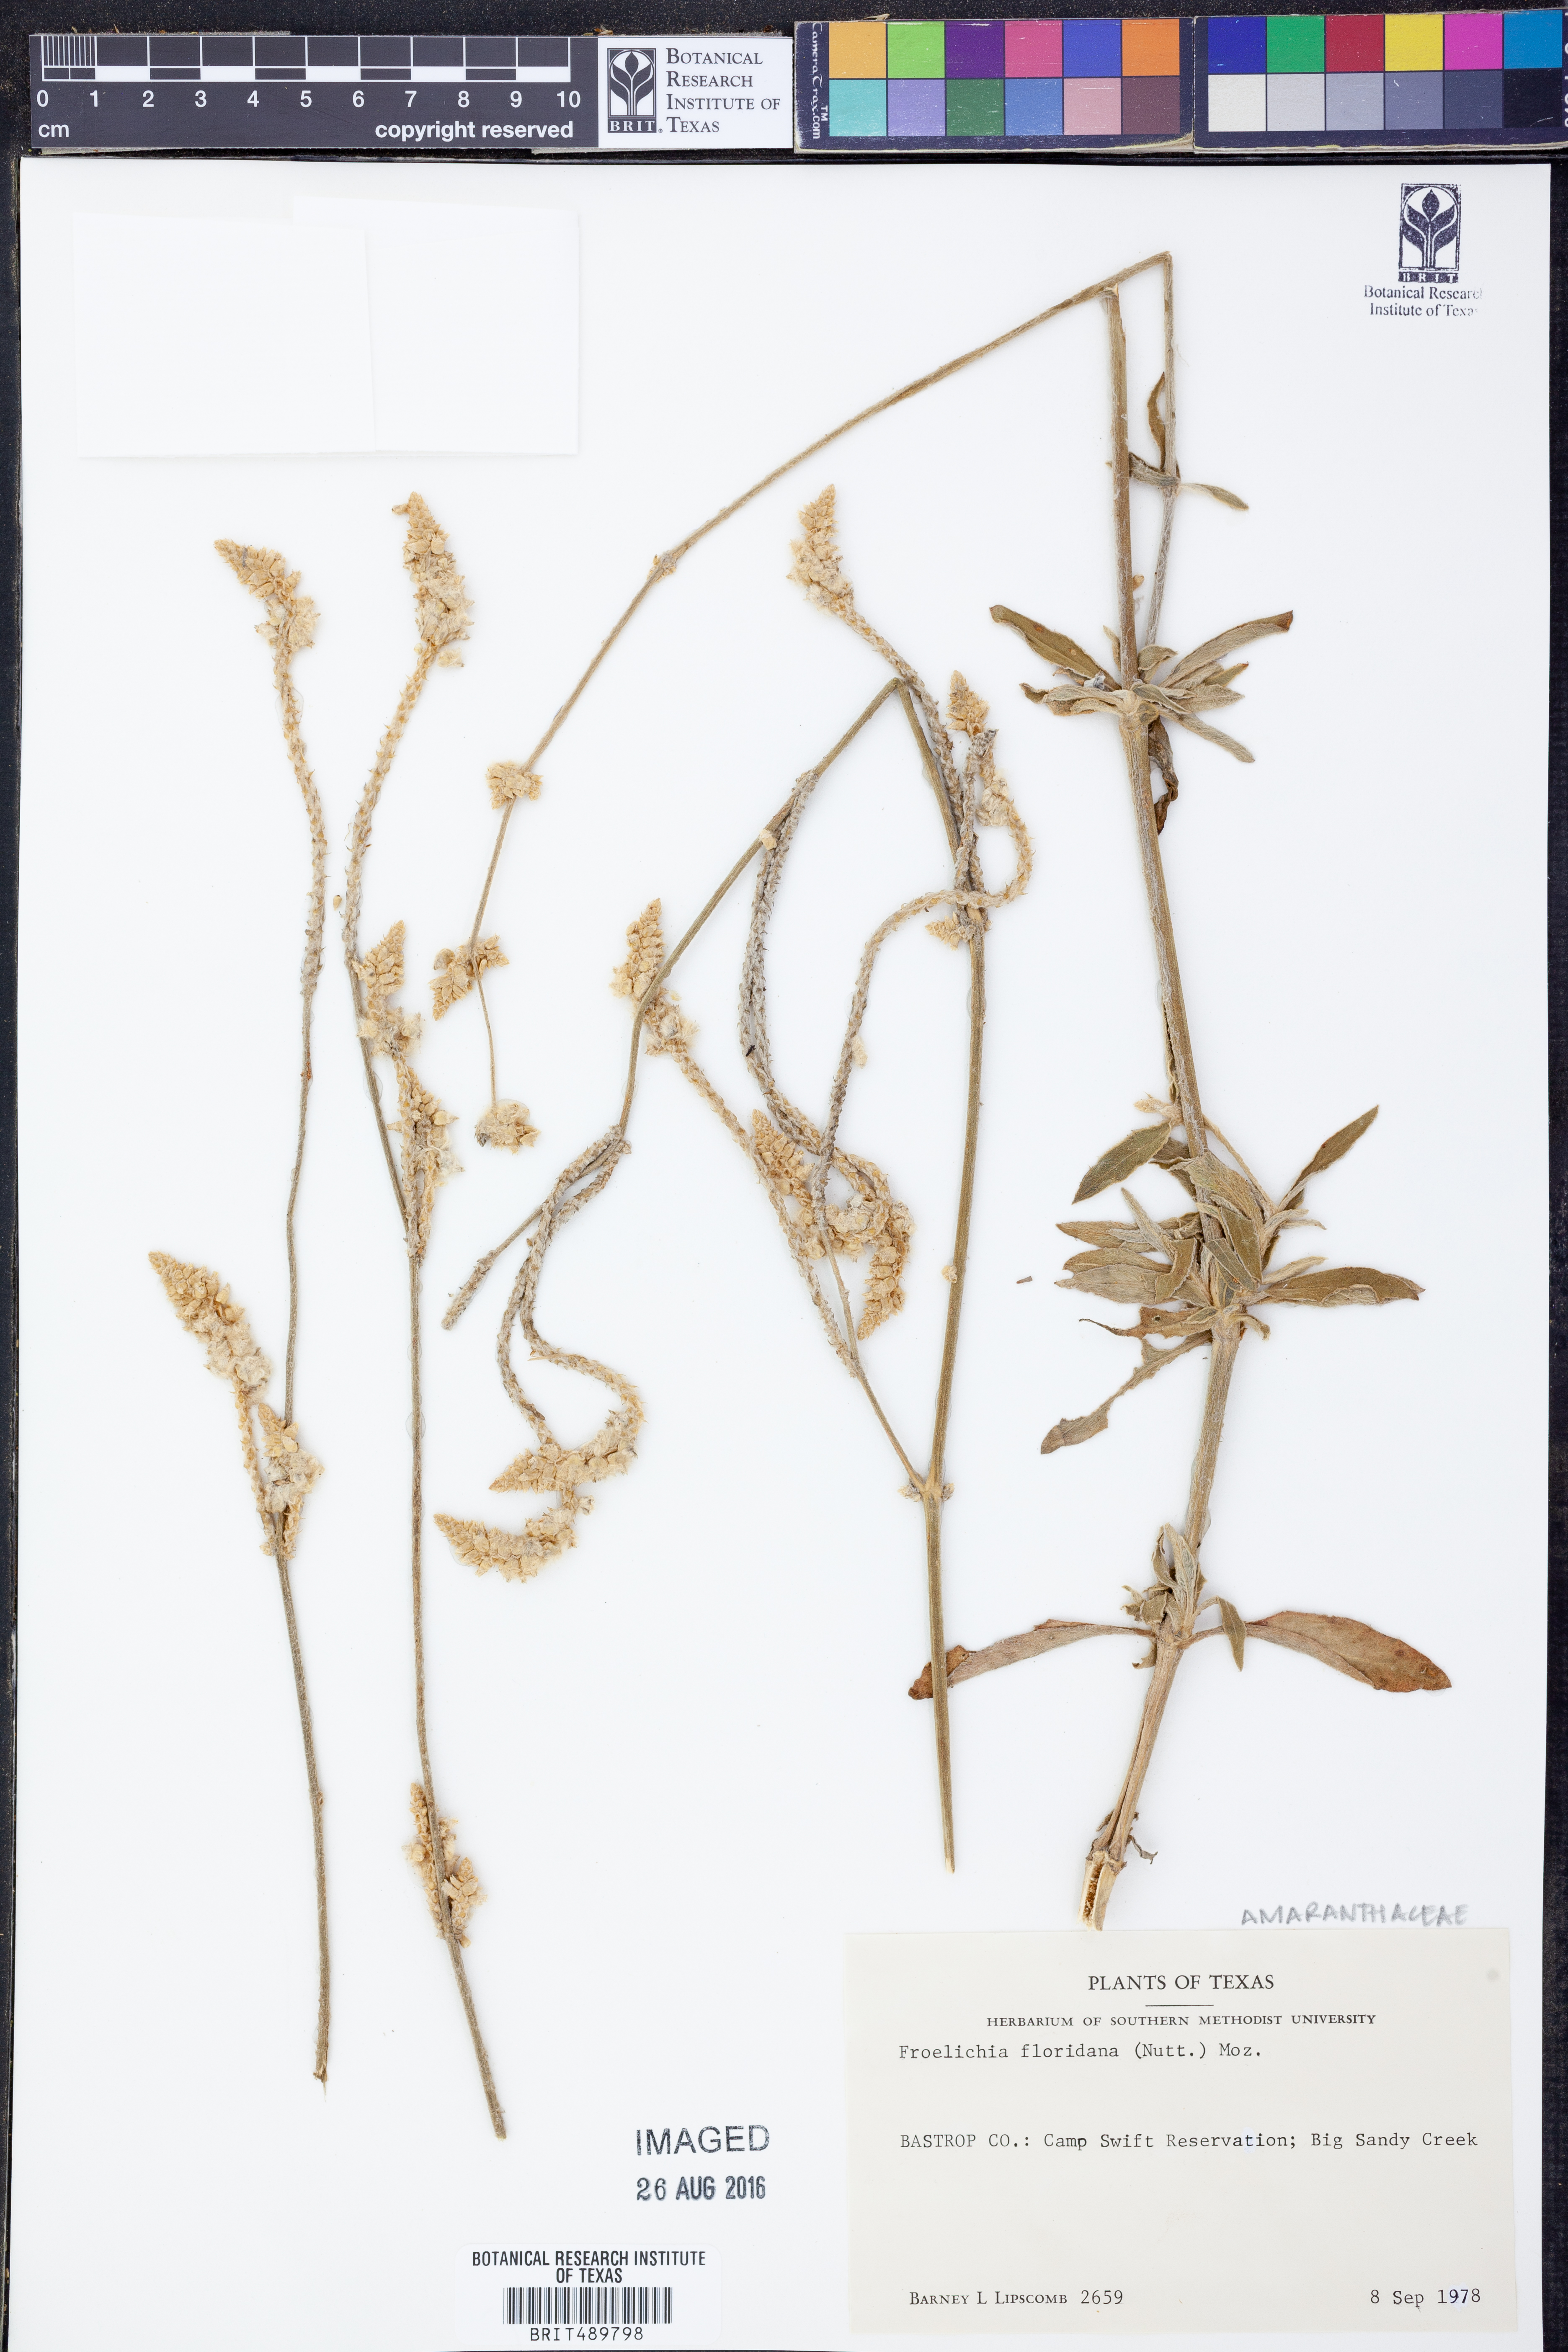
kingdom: Plantae
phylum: Tracheophyta
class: Magnoliopsida
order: Caryophyllales
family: Amaranthaceae
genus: Froelichia
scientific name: Froelichia floridana
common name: Florida snake-cotton
